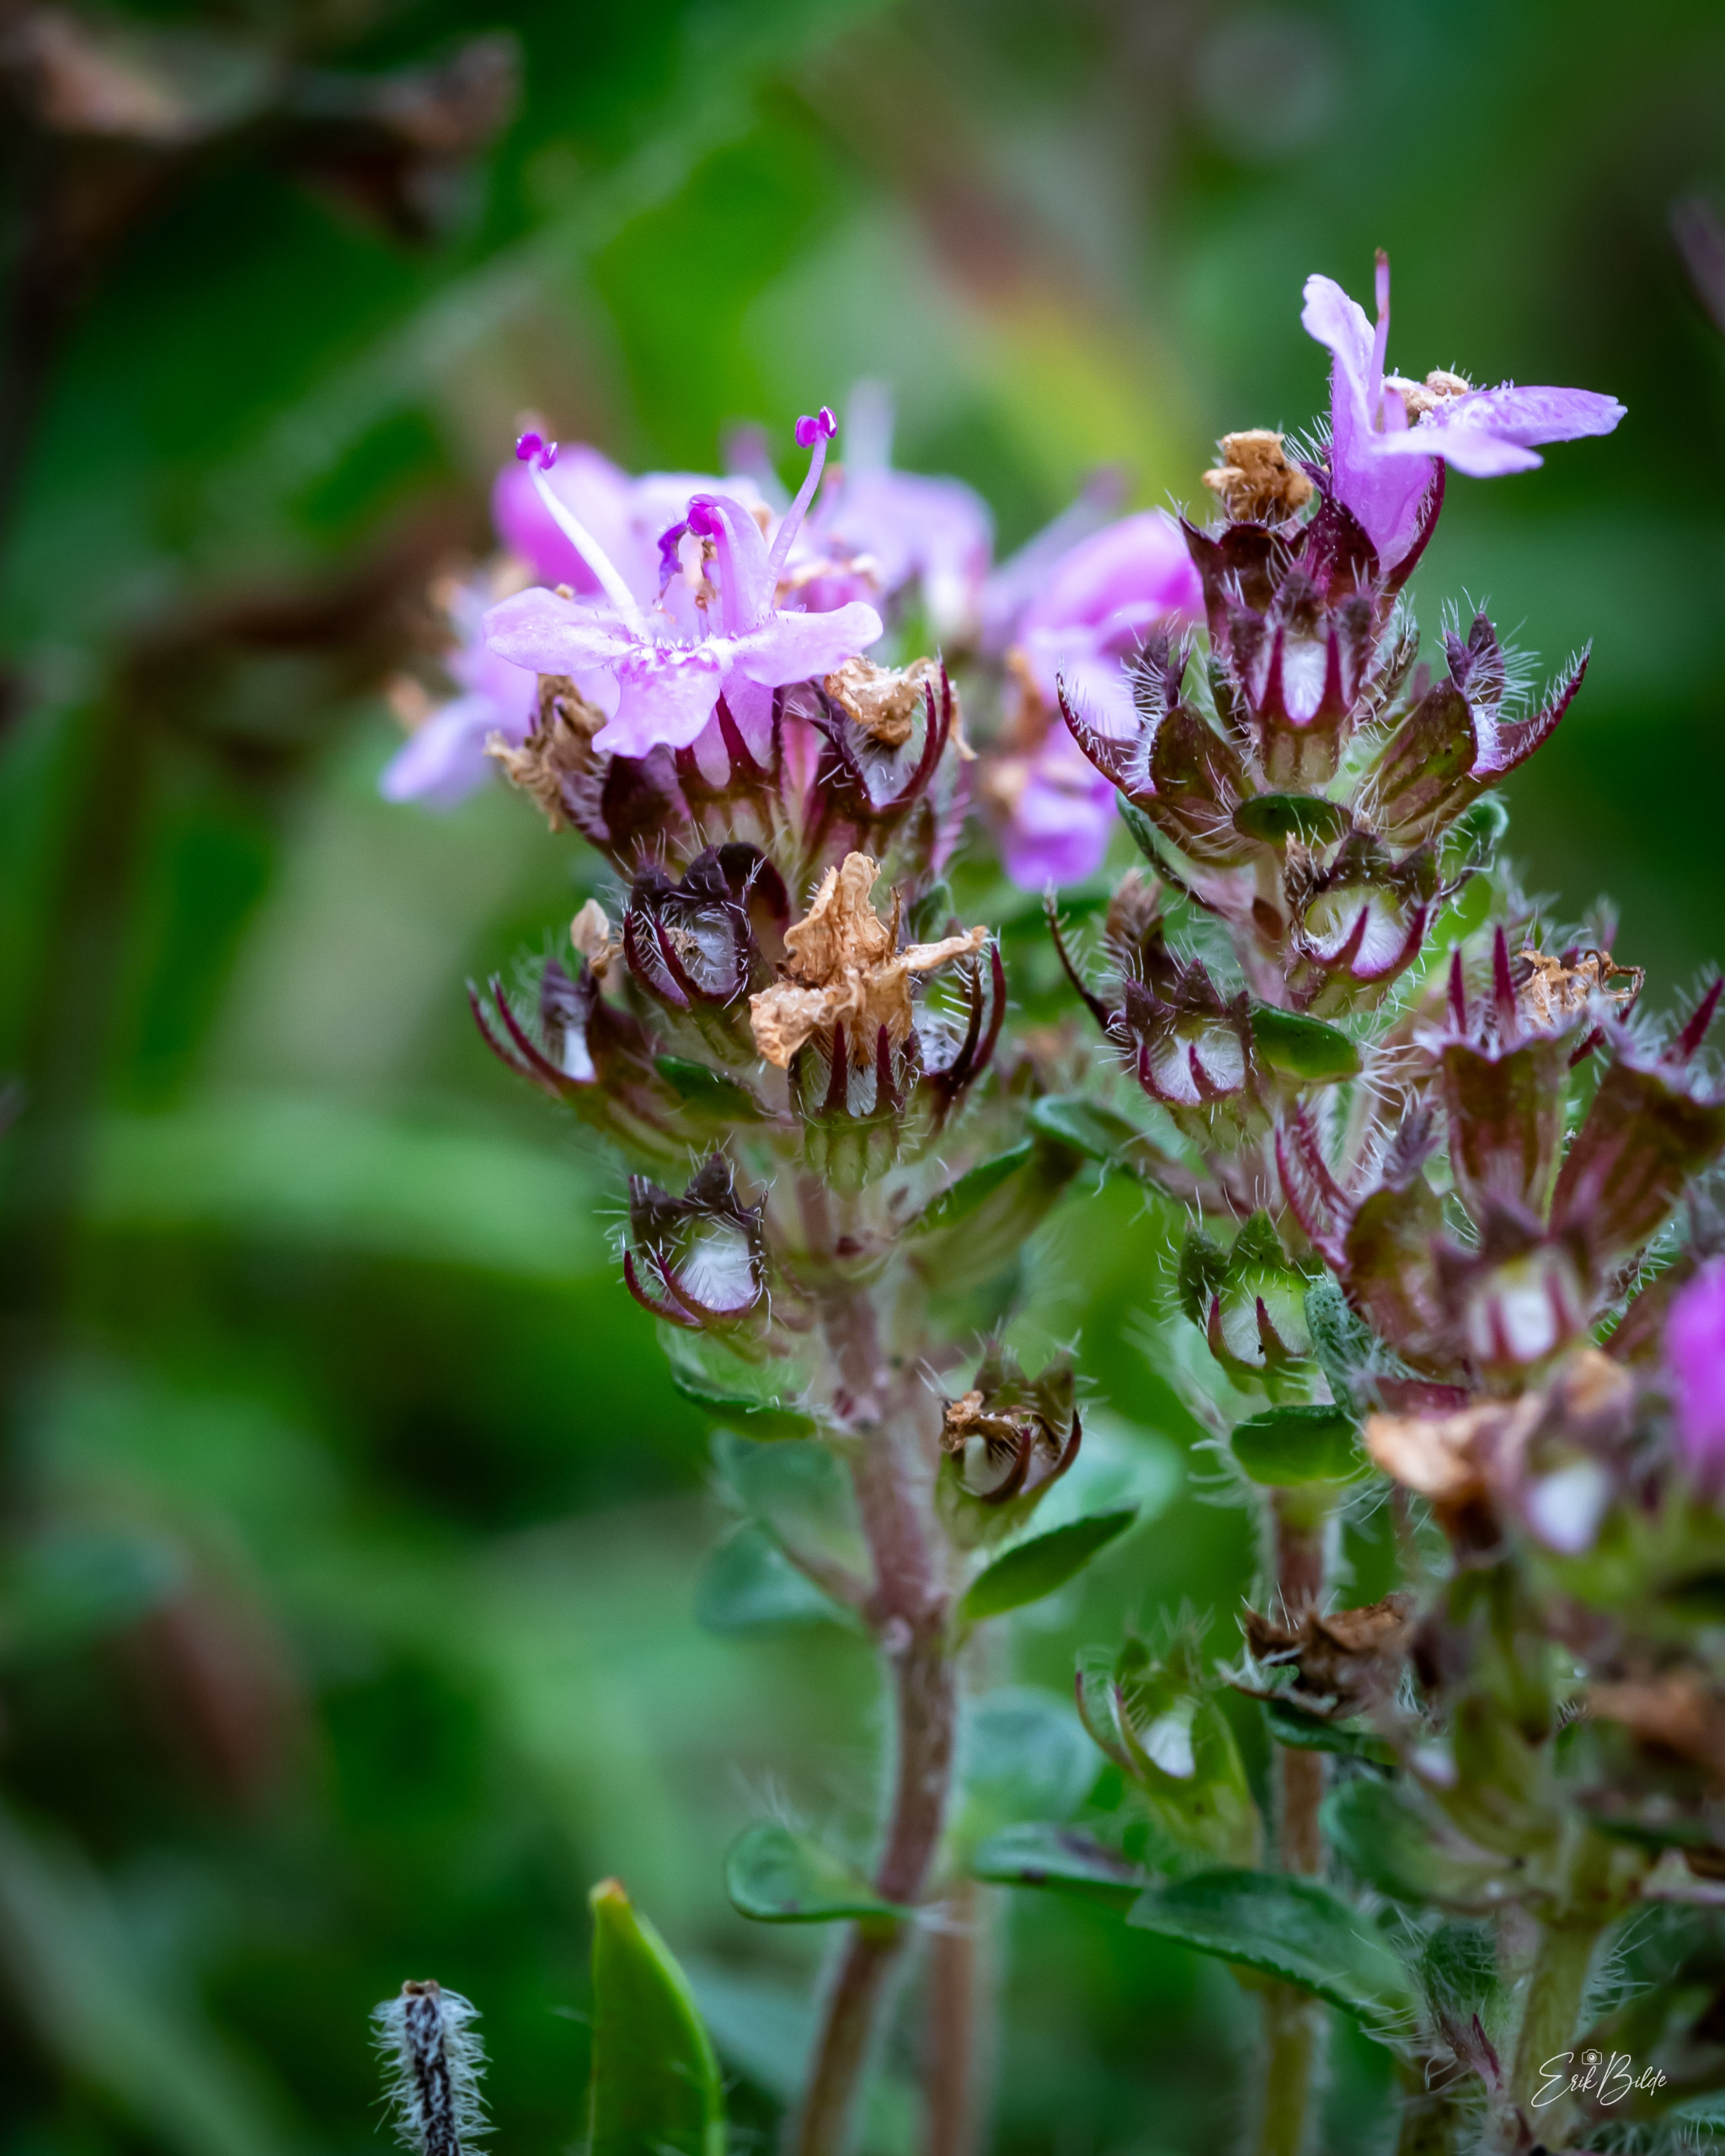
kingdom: Plantae
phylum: Tracheophyta
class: Magnoliopsida
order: Lamiales
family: Lamiaceae
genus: Thymus
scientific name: Thymus serpyllum
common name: Smalbladet timian
